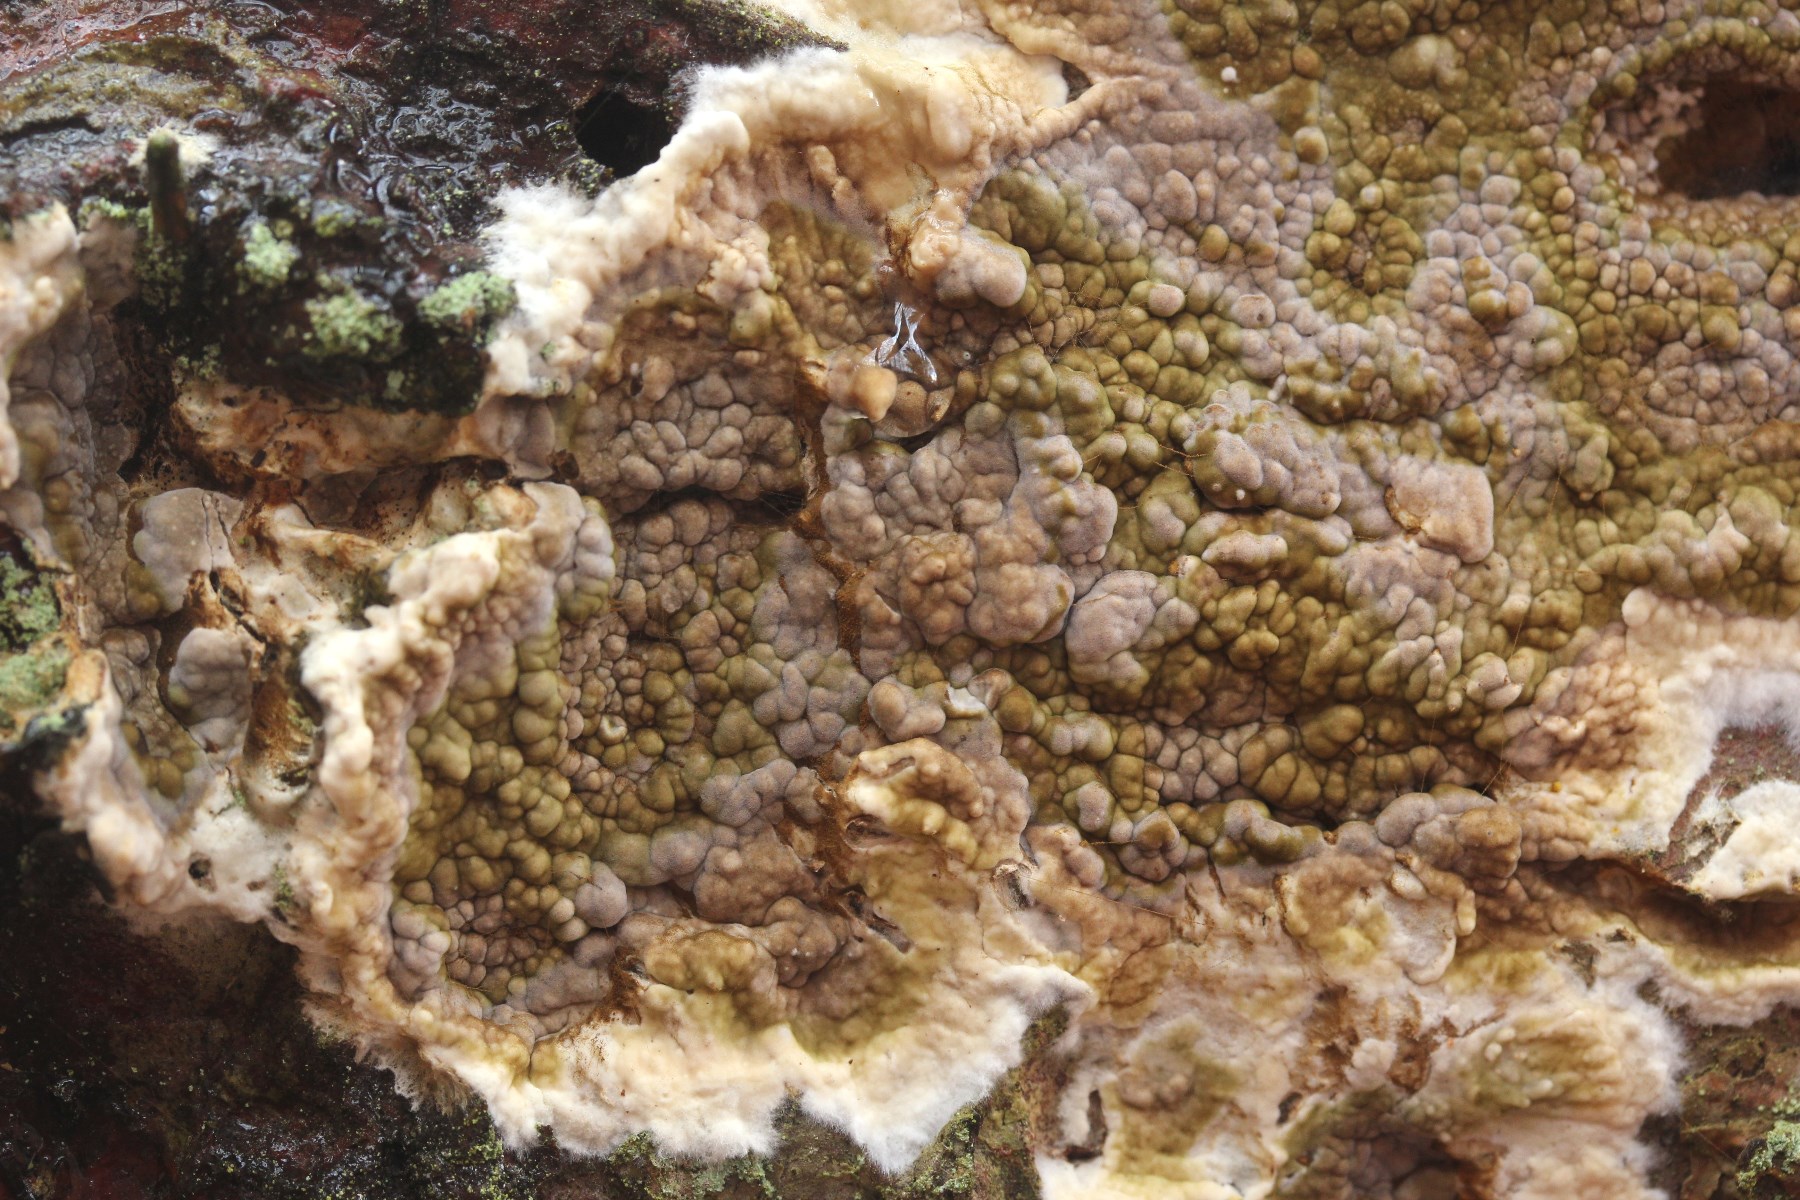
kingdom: Fungi
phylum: Basidiomycota
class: Agaricomycetes
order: Boletales
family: Coniophoraceae
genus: Coniophora
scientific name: Coniophora puteana
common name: gul tømmersvamp
